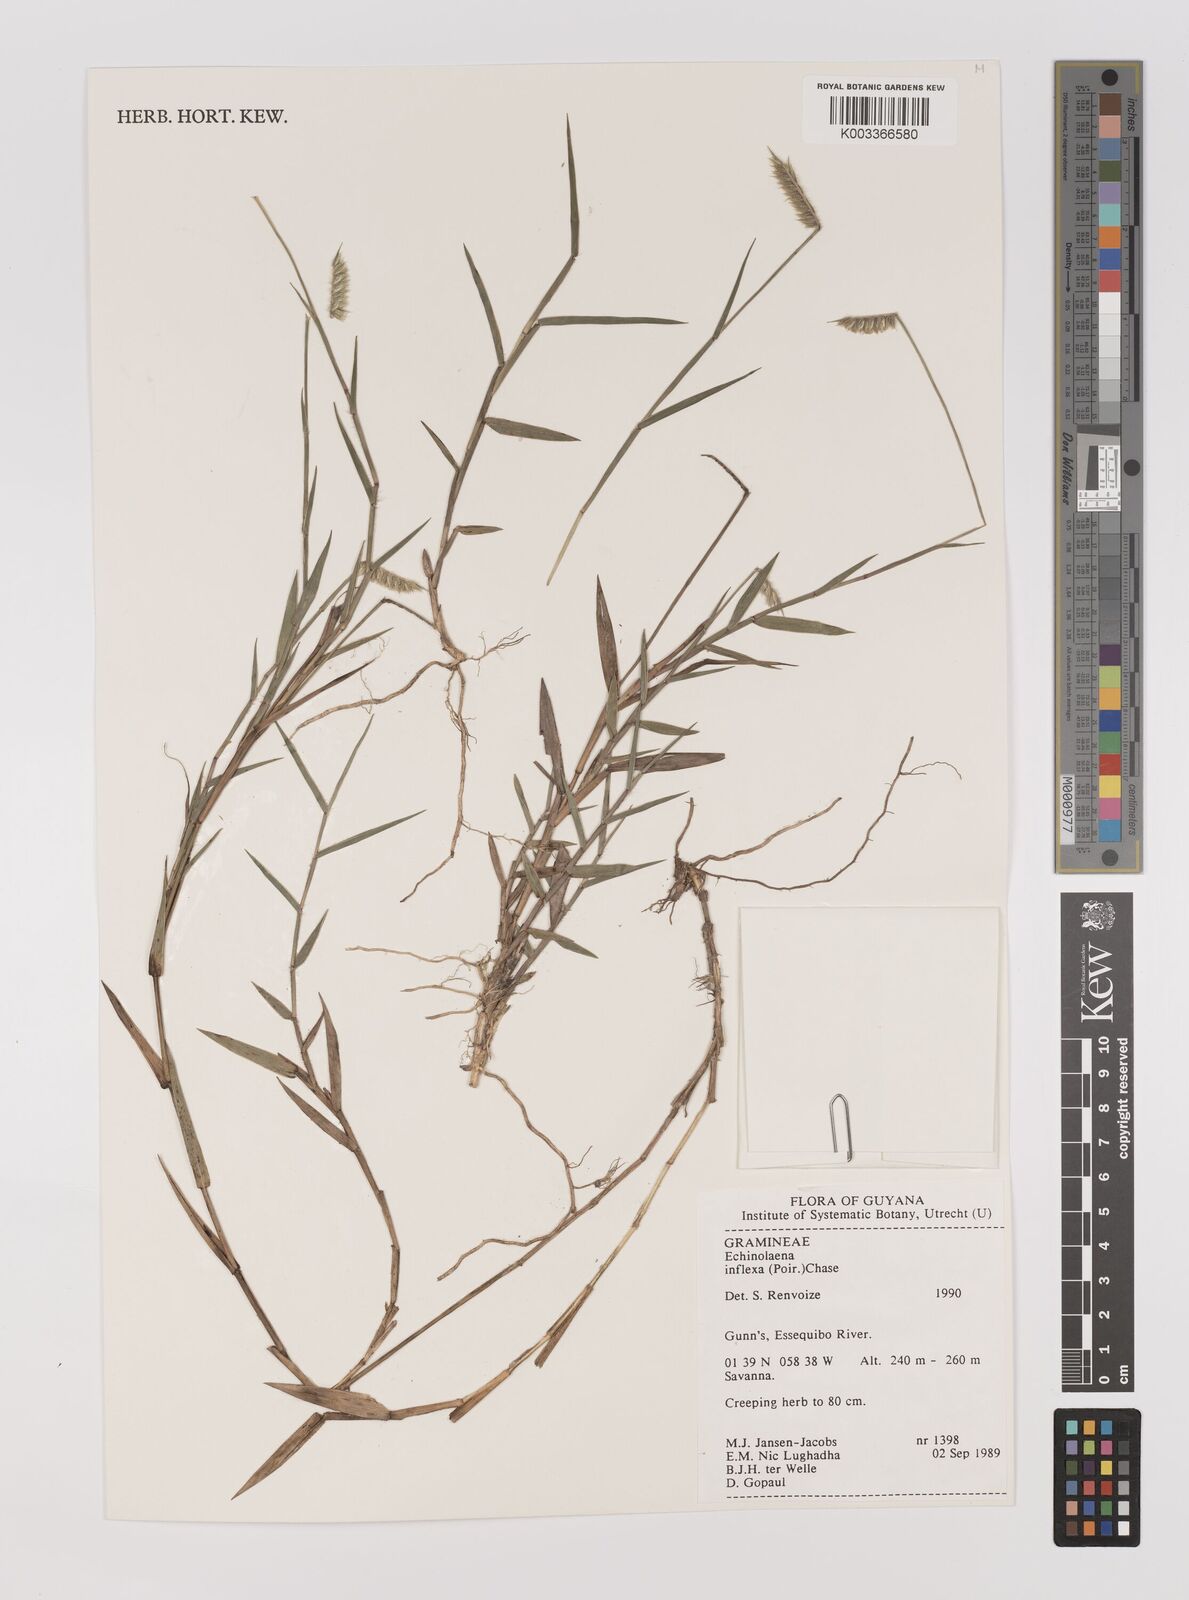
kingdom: Plantae
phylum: Tracheophyta
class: Liliopsida
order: Poales
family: Poaceae
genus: Echinolaena
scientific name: Echinolaena inflexa
